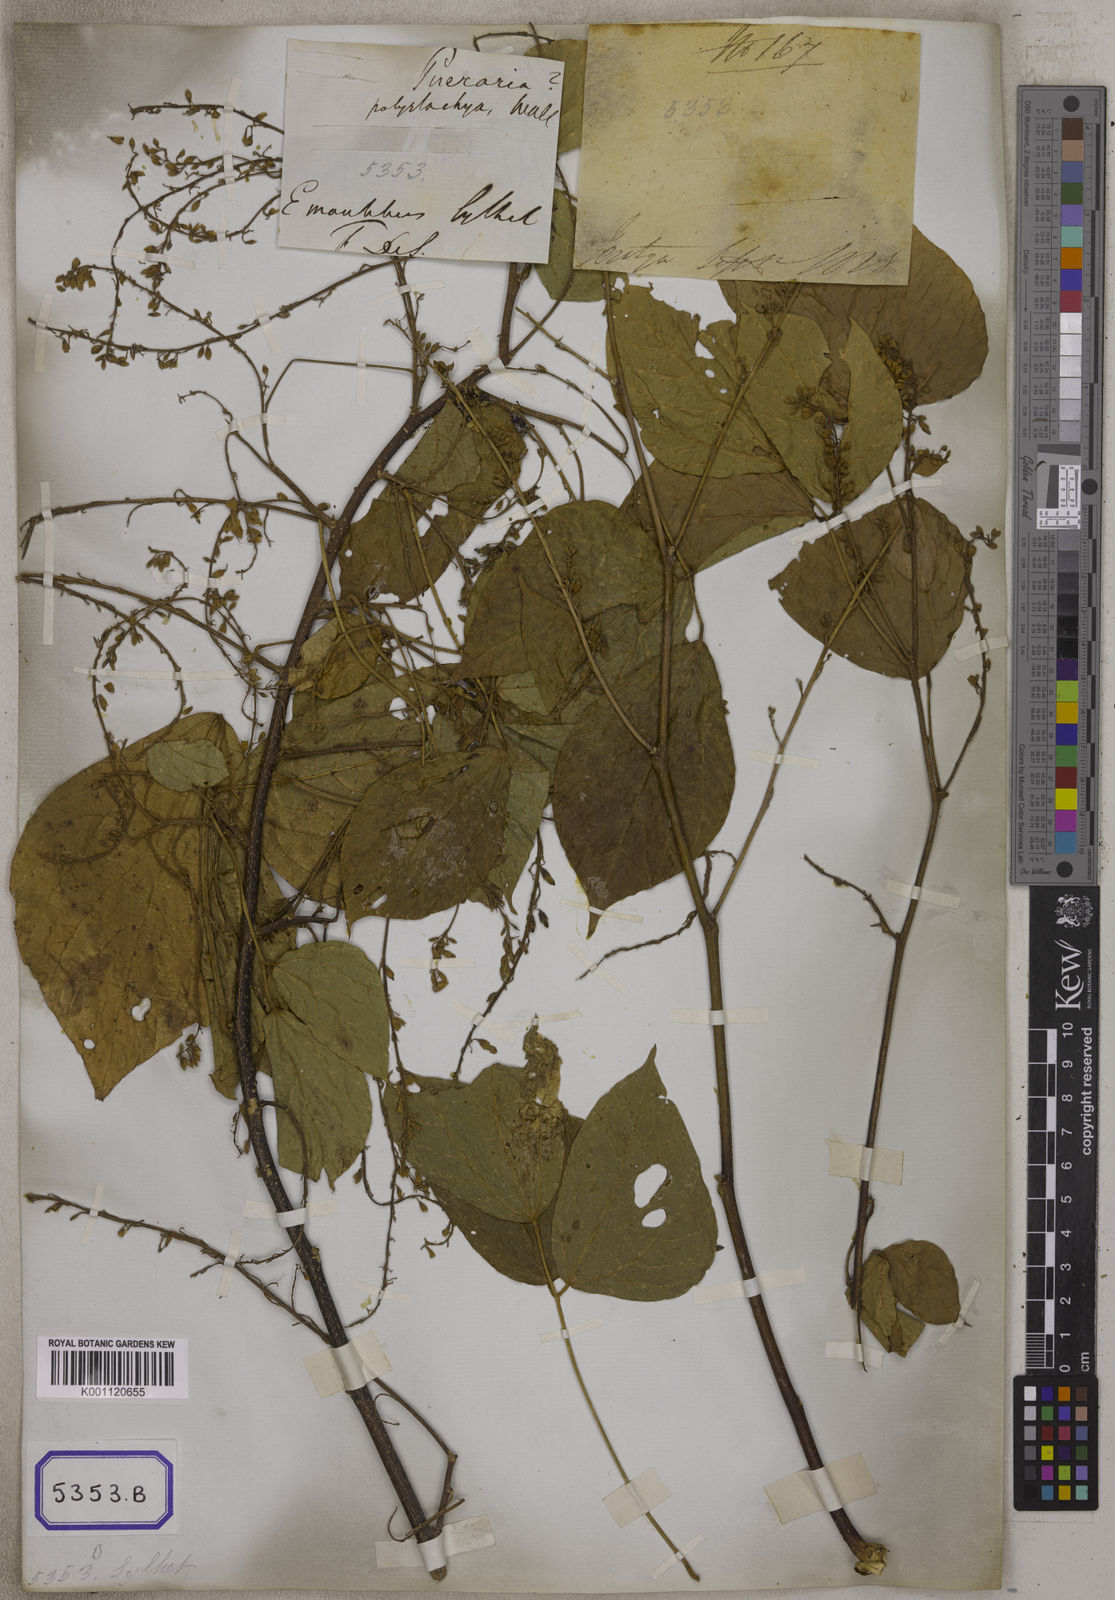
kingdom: Plantae
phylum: Tracheophyta
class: Magnoliopsida
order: Fabales
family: Fabaceae
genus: Haymondia
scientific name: Haymondia wallichii
